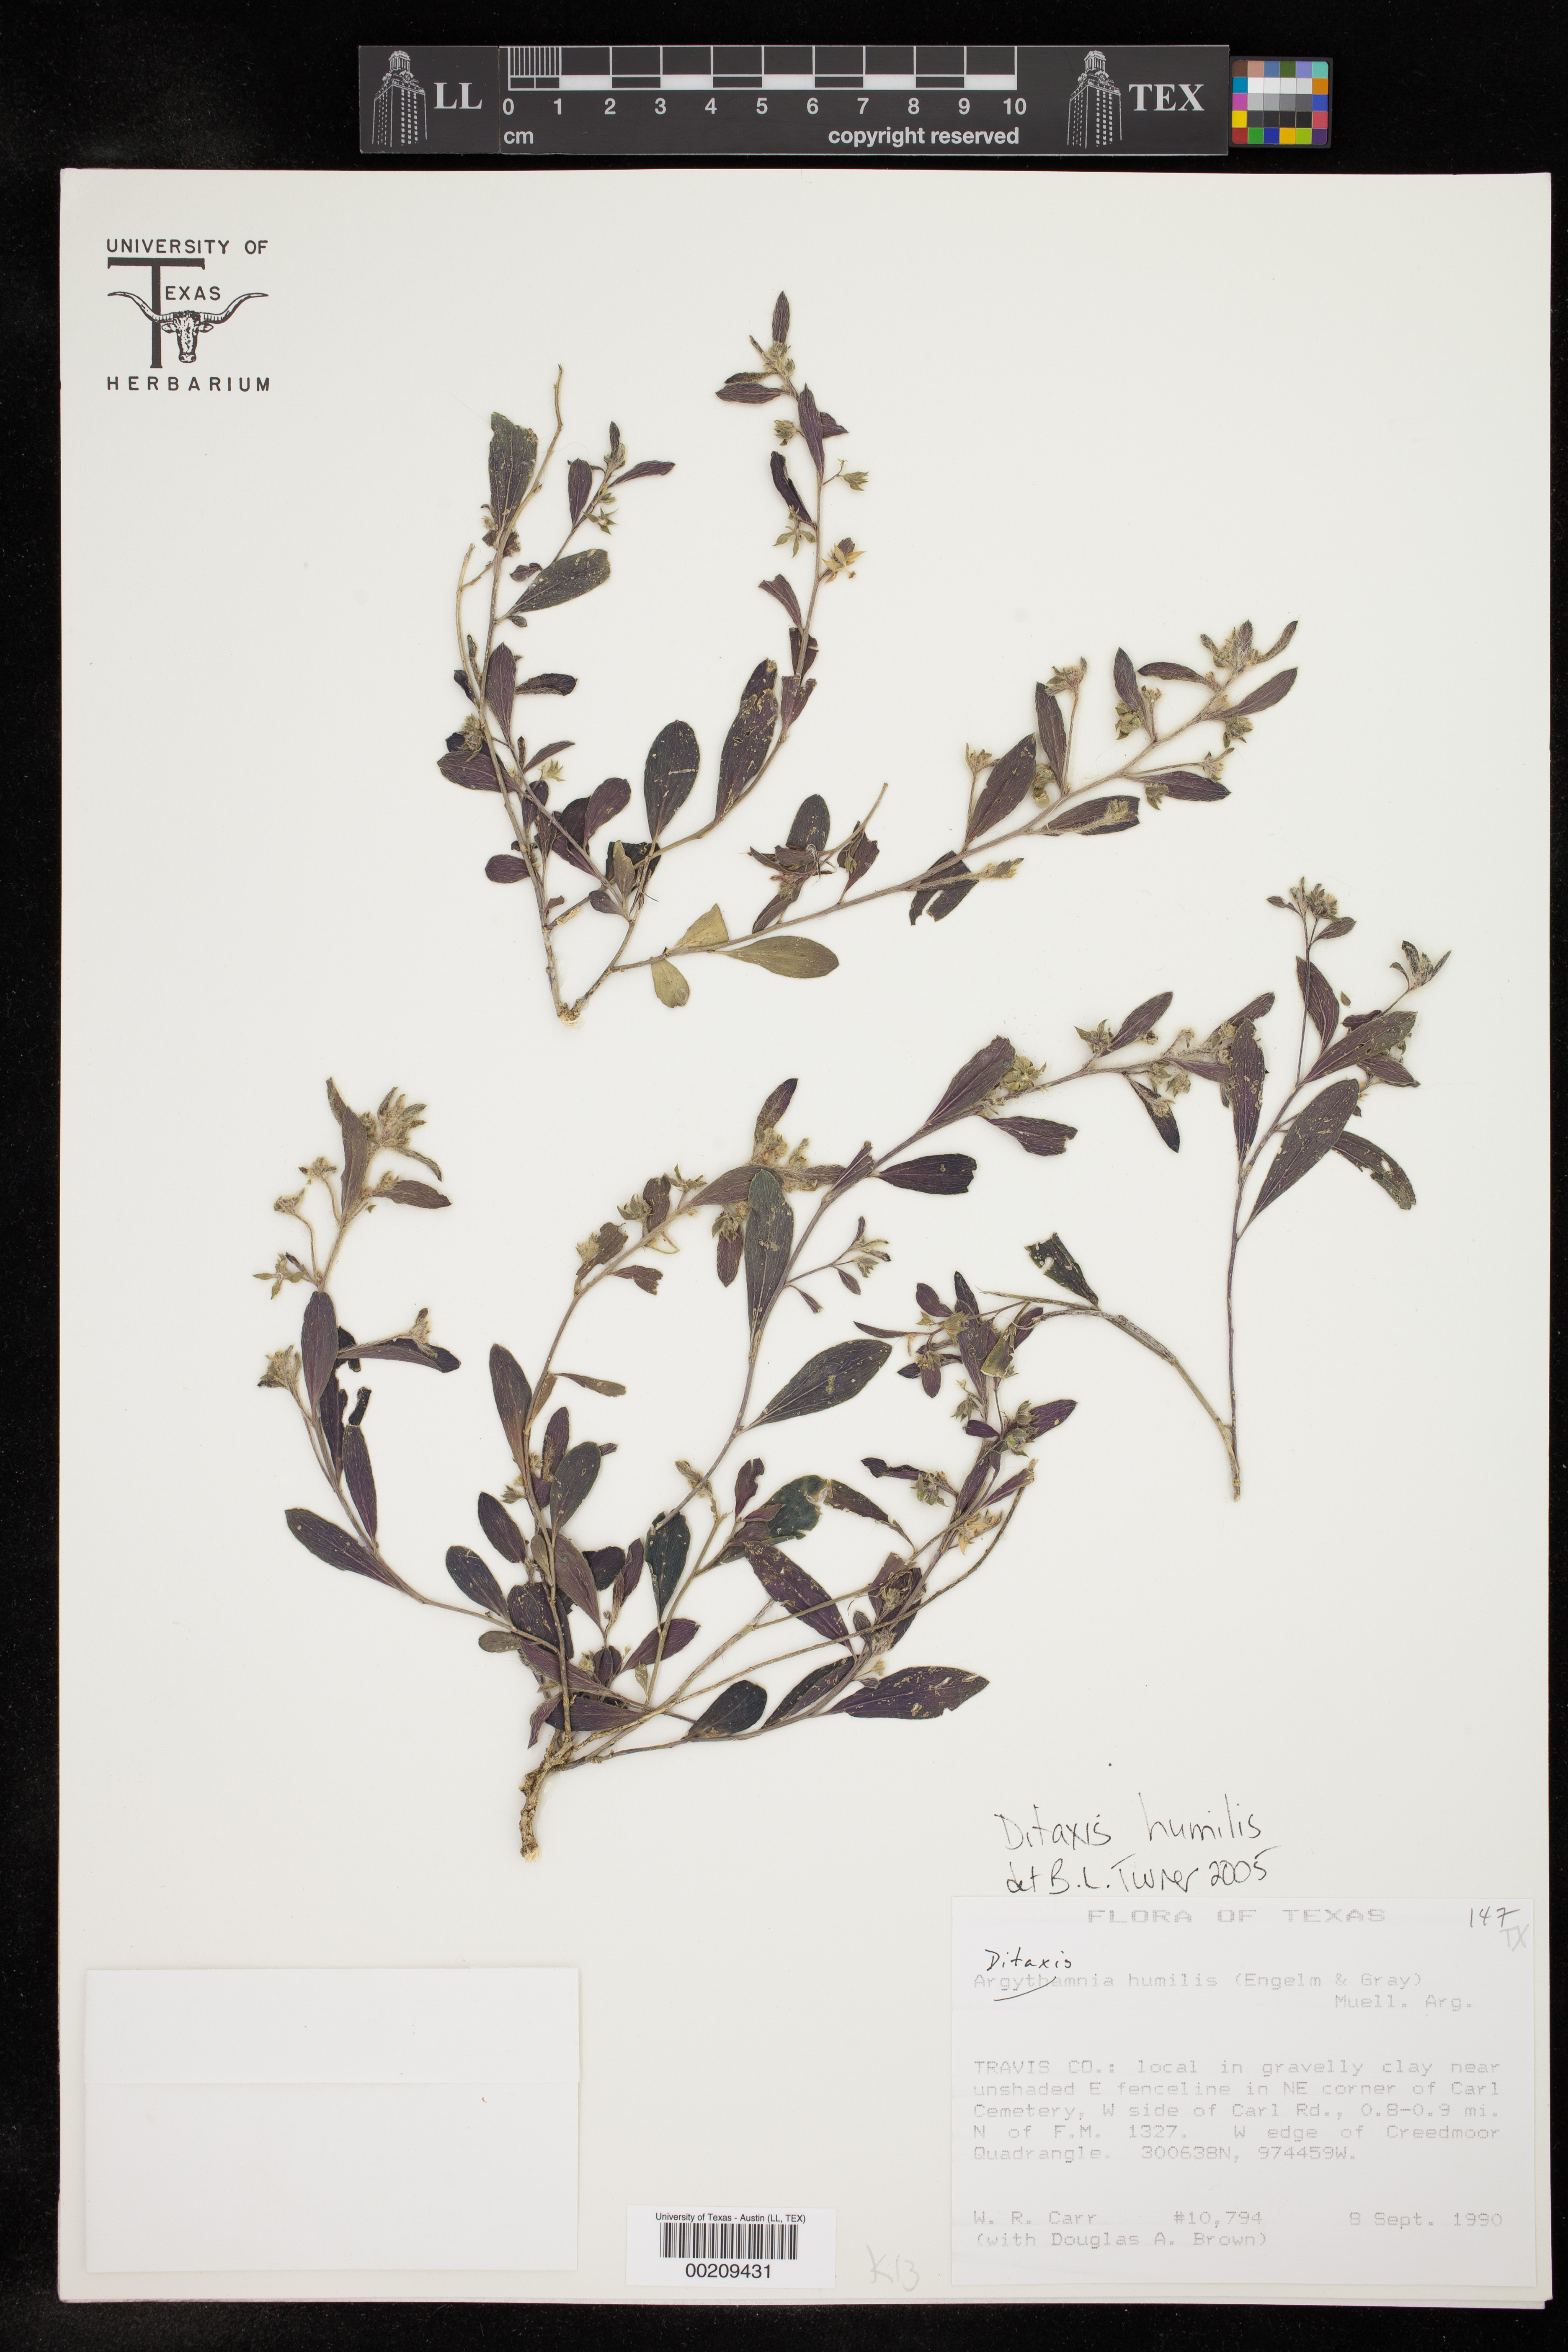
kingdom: Plantae
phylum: Tracheophyta
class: Magnoliopsida
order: Malpighiales
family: Euphorbiaceae
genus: Ditaxis
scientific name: Ditaxis humilis
